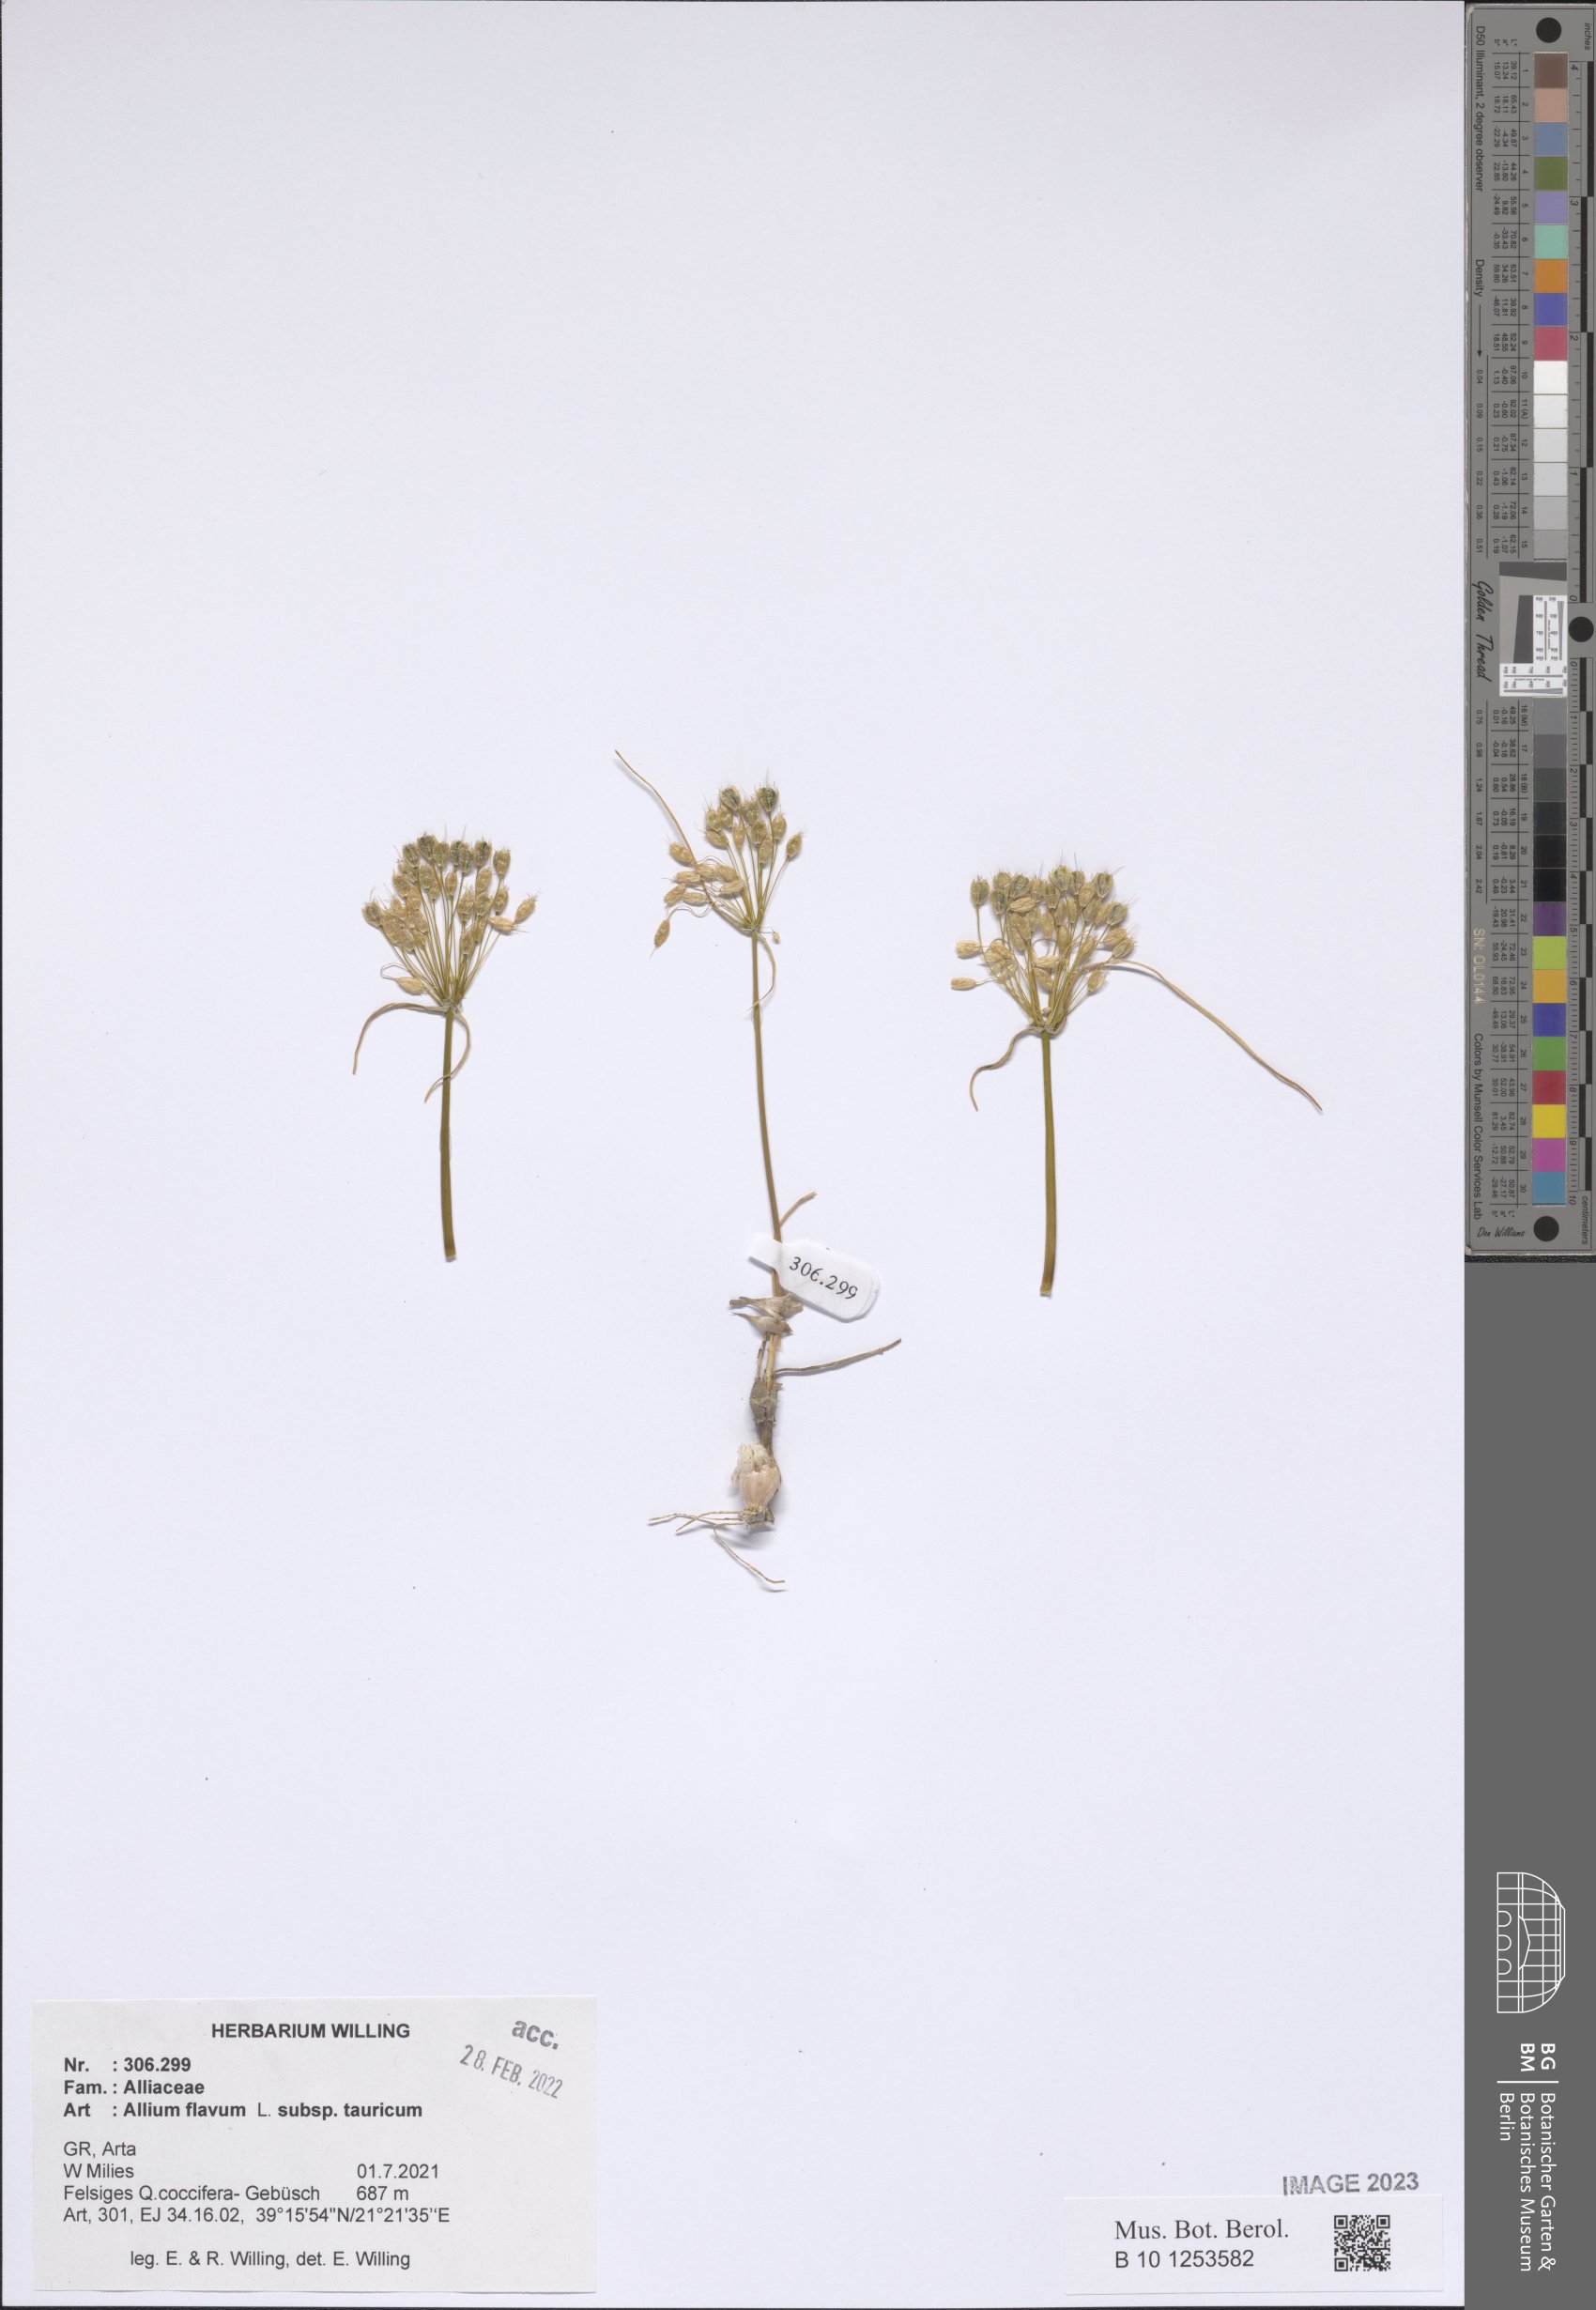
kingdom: Plantae
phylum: Tracheophyta
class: Liliopsida
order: Asparagales
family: Amaryllidaceae
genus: Allium
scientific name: Allium flavum
